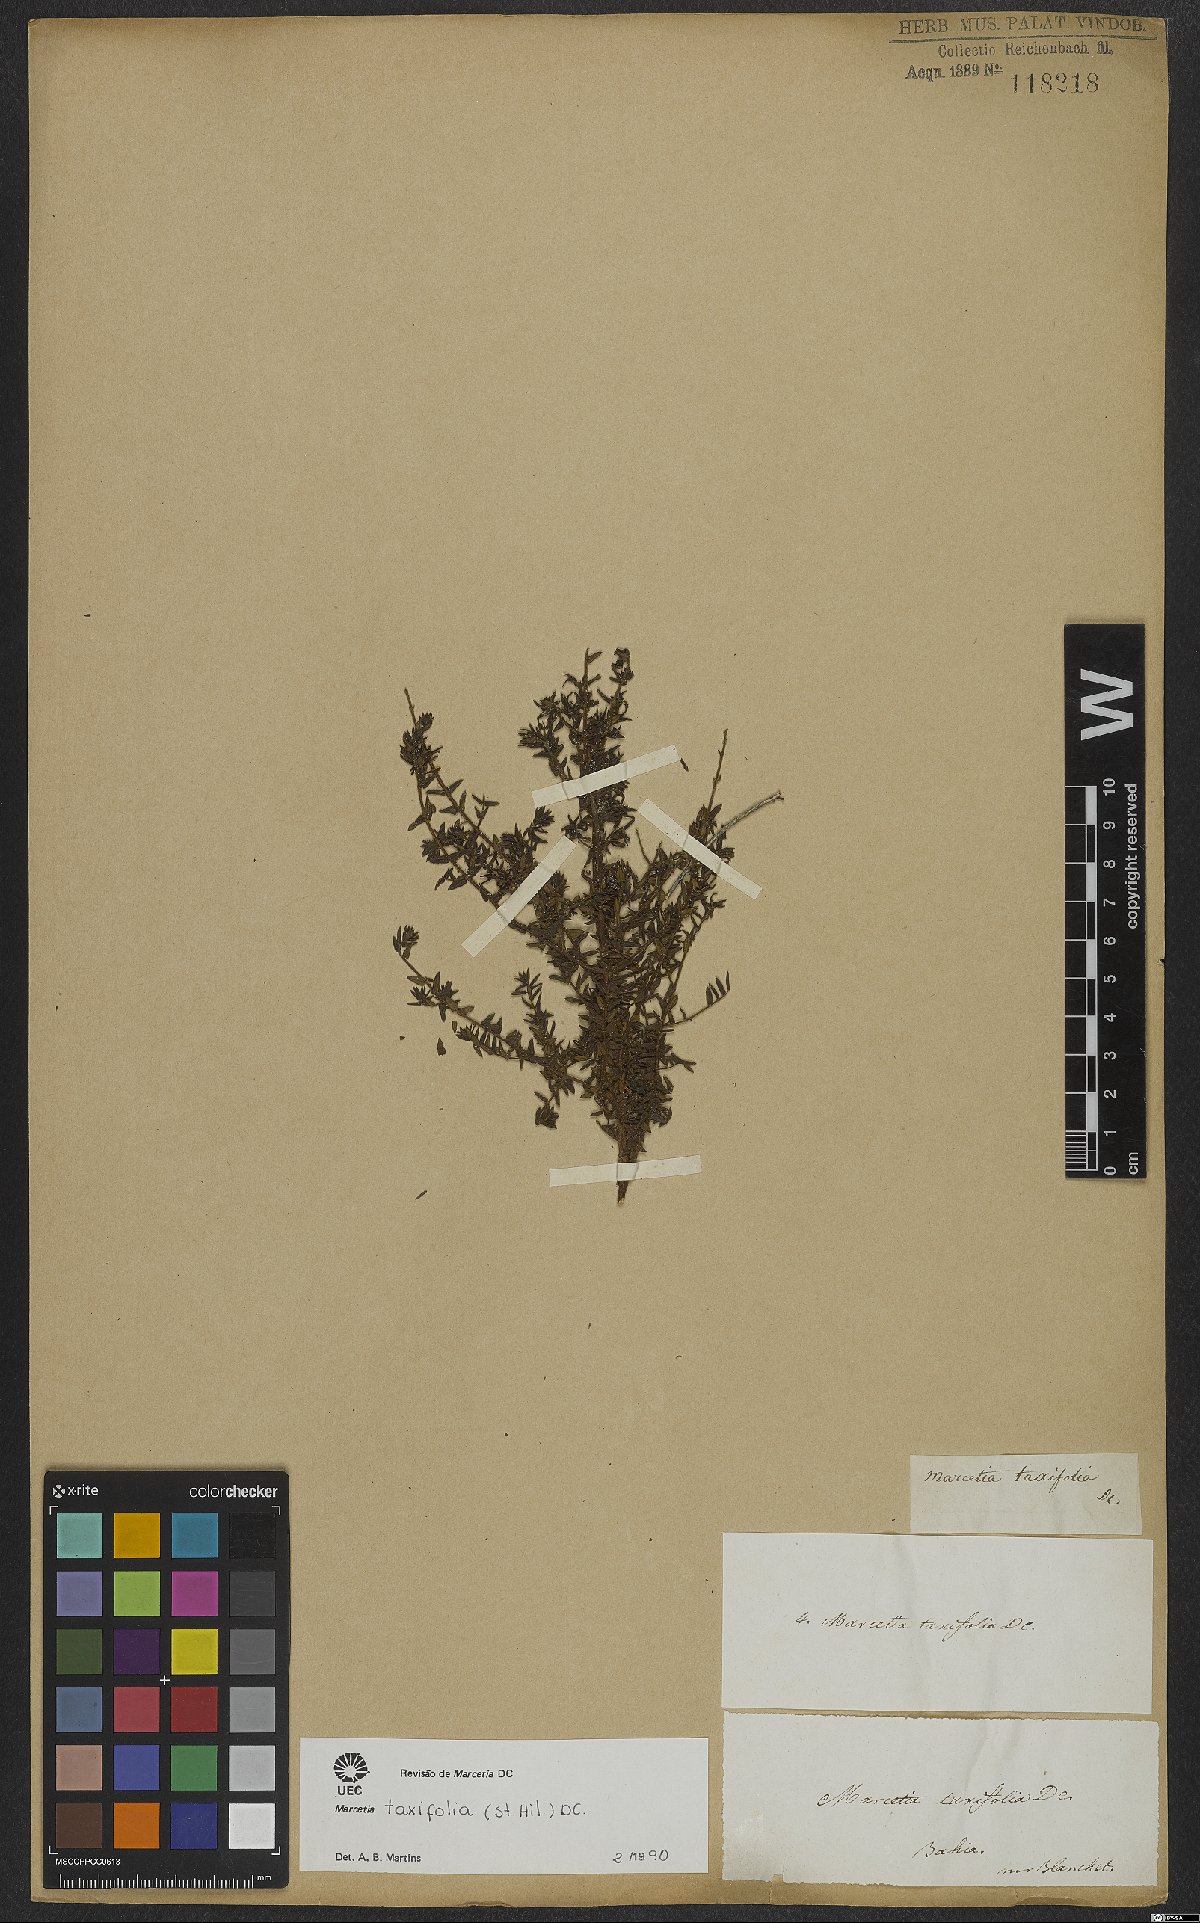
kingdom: Plantae
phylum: Tracheophyta
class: Magnoliopsida
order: Myrtales
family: Melastomataceae
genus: Marcetia
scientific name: Marcetia taxifolia
